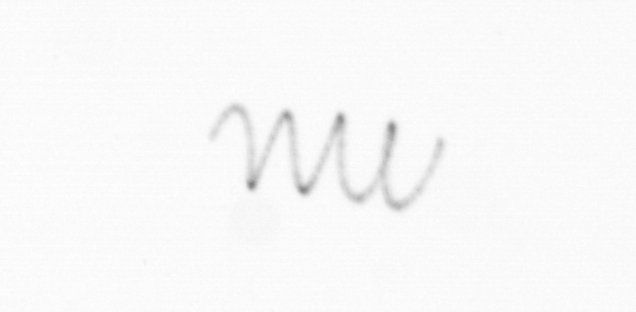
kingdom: Chromista
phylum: Ochrophyta
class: Bacillariophyceae
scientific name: Bacillariophyceae
